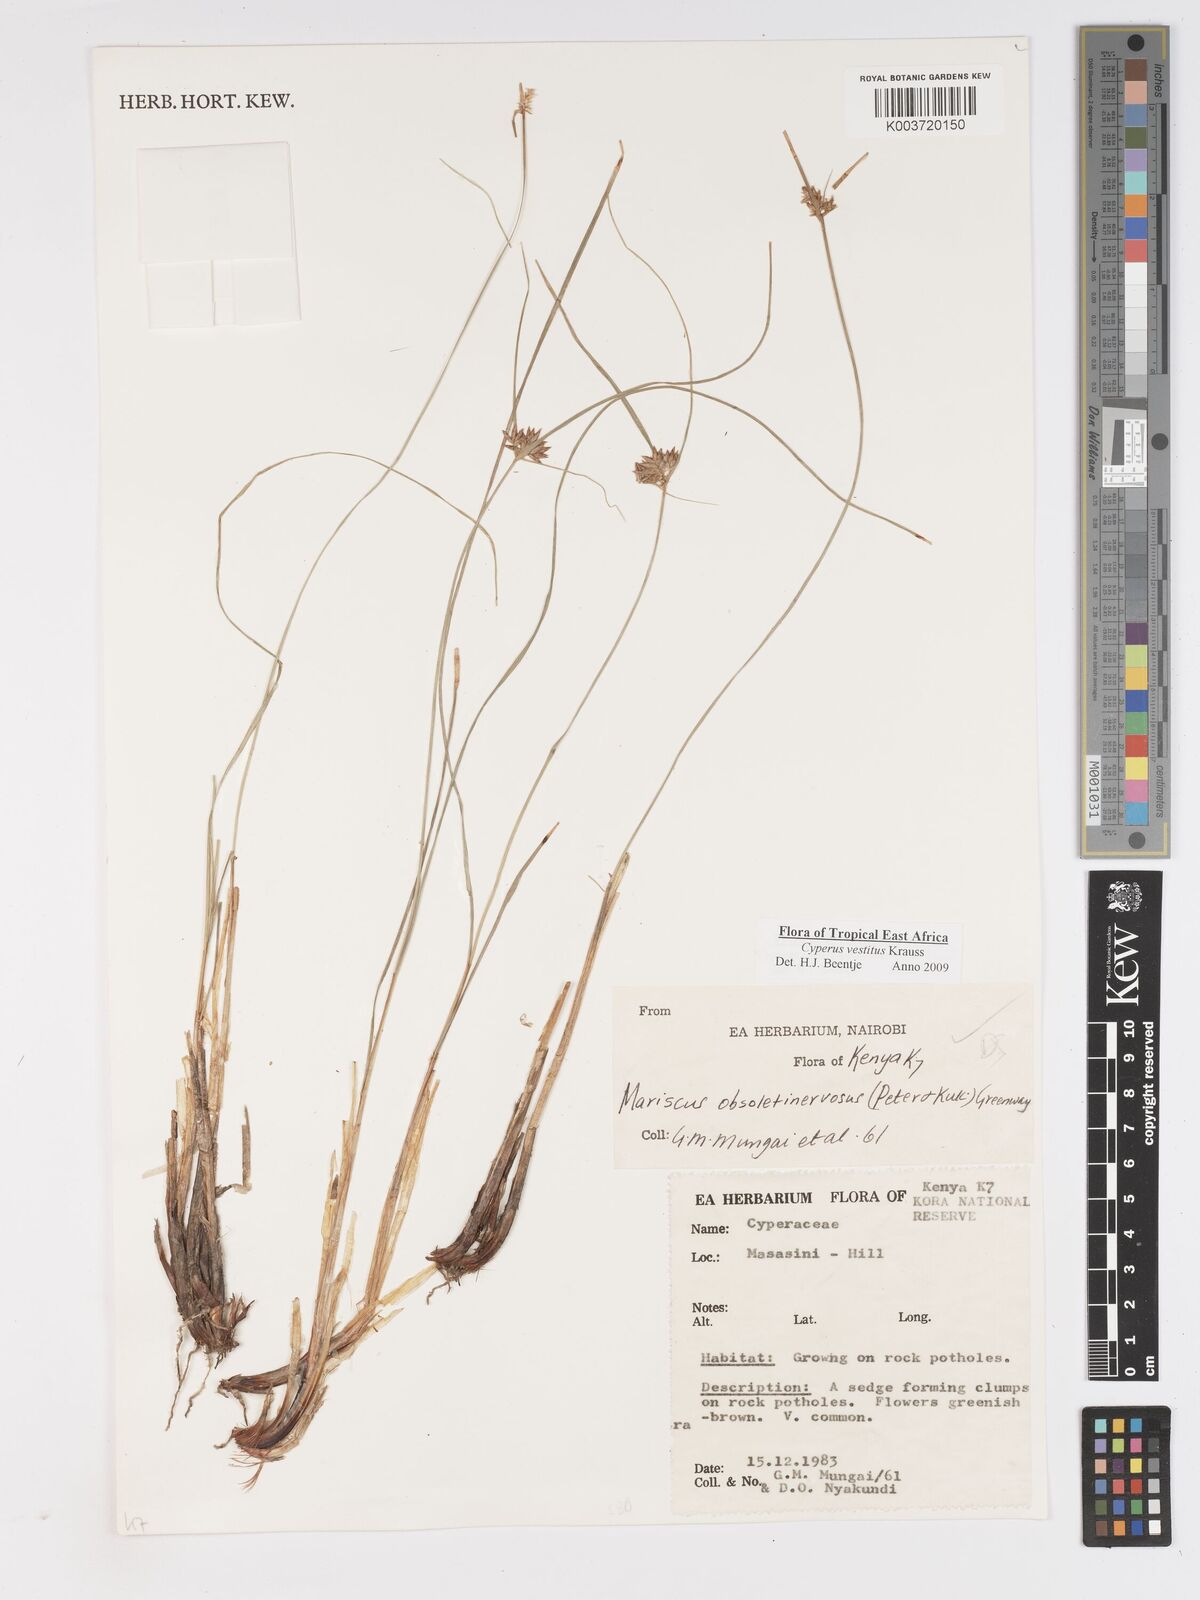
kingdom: Plantae
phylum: Tracheophyta
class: Liliopsida
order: Poales
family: Cyperaceae
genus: Cyperus
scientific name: Cyperus vestitus
